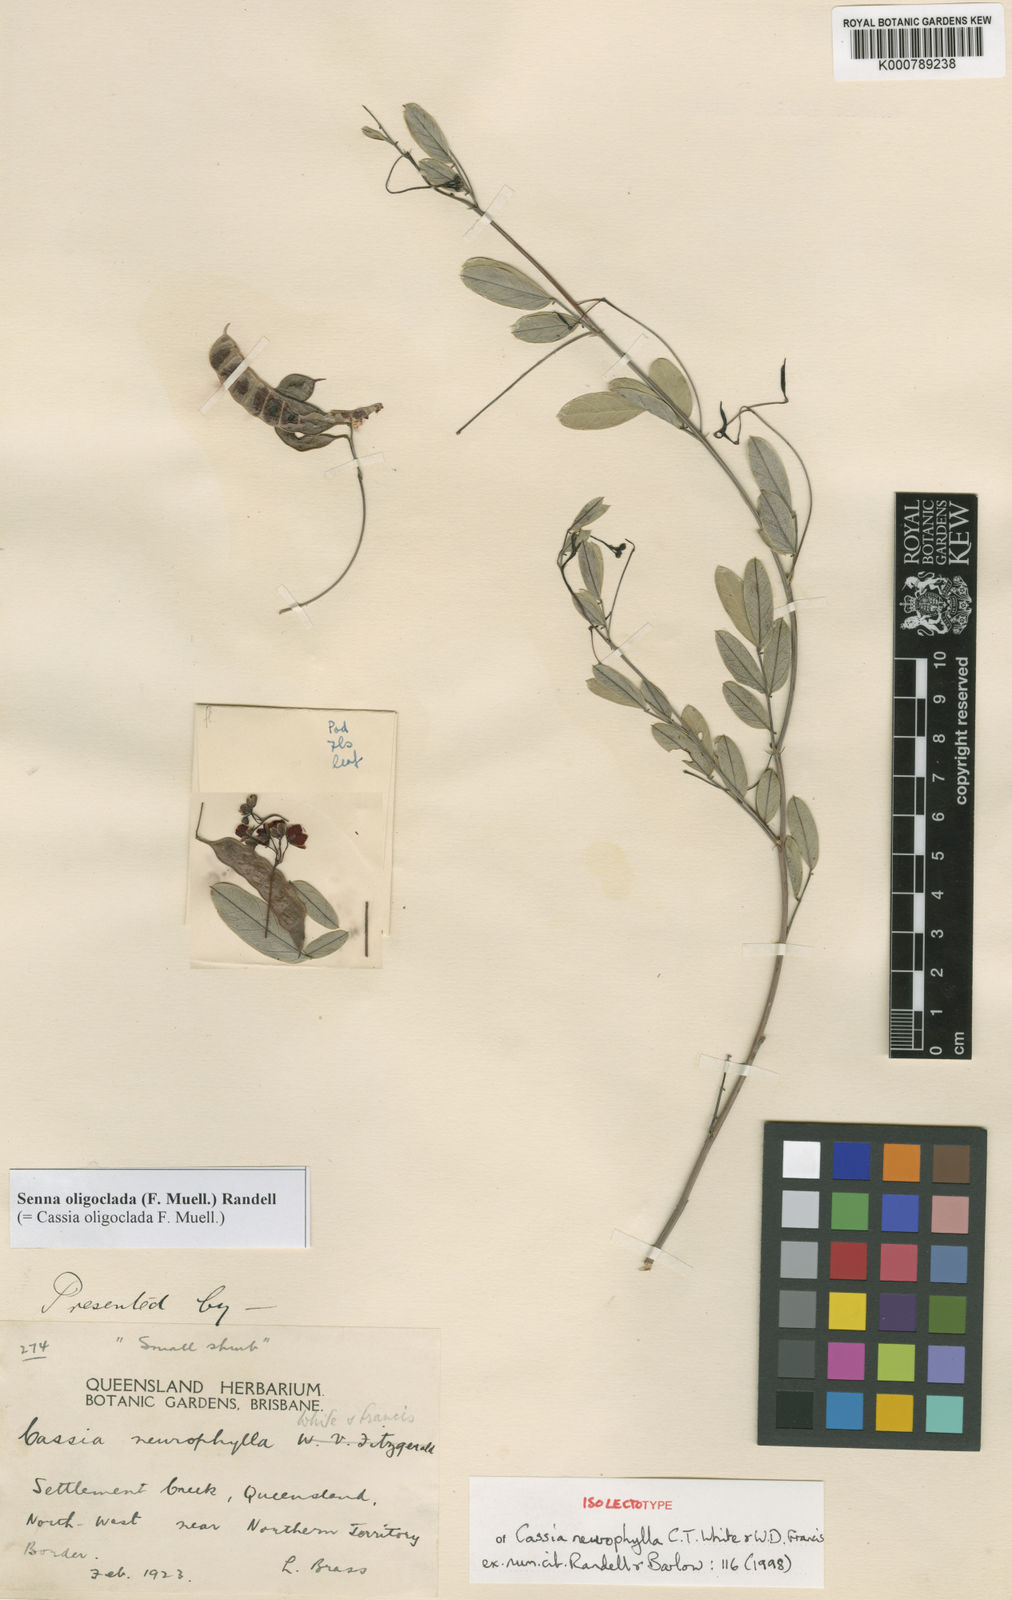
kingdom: Plantae
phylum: Tracheophyta
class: Magnoliopsida
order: Fabales
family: Fabaceae
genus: Senna
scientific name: Senna oligoclada
